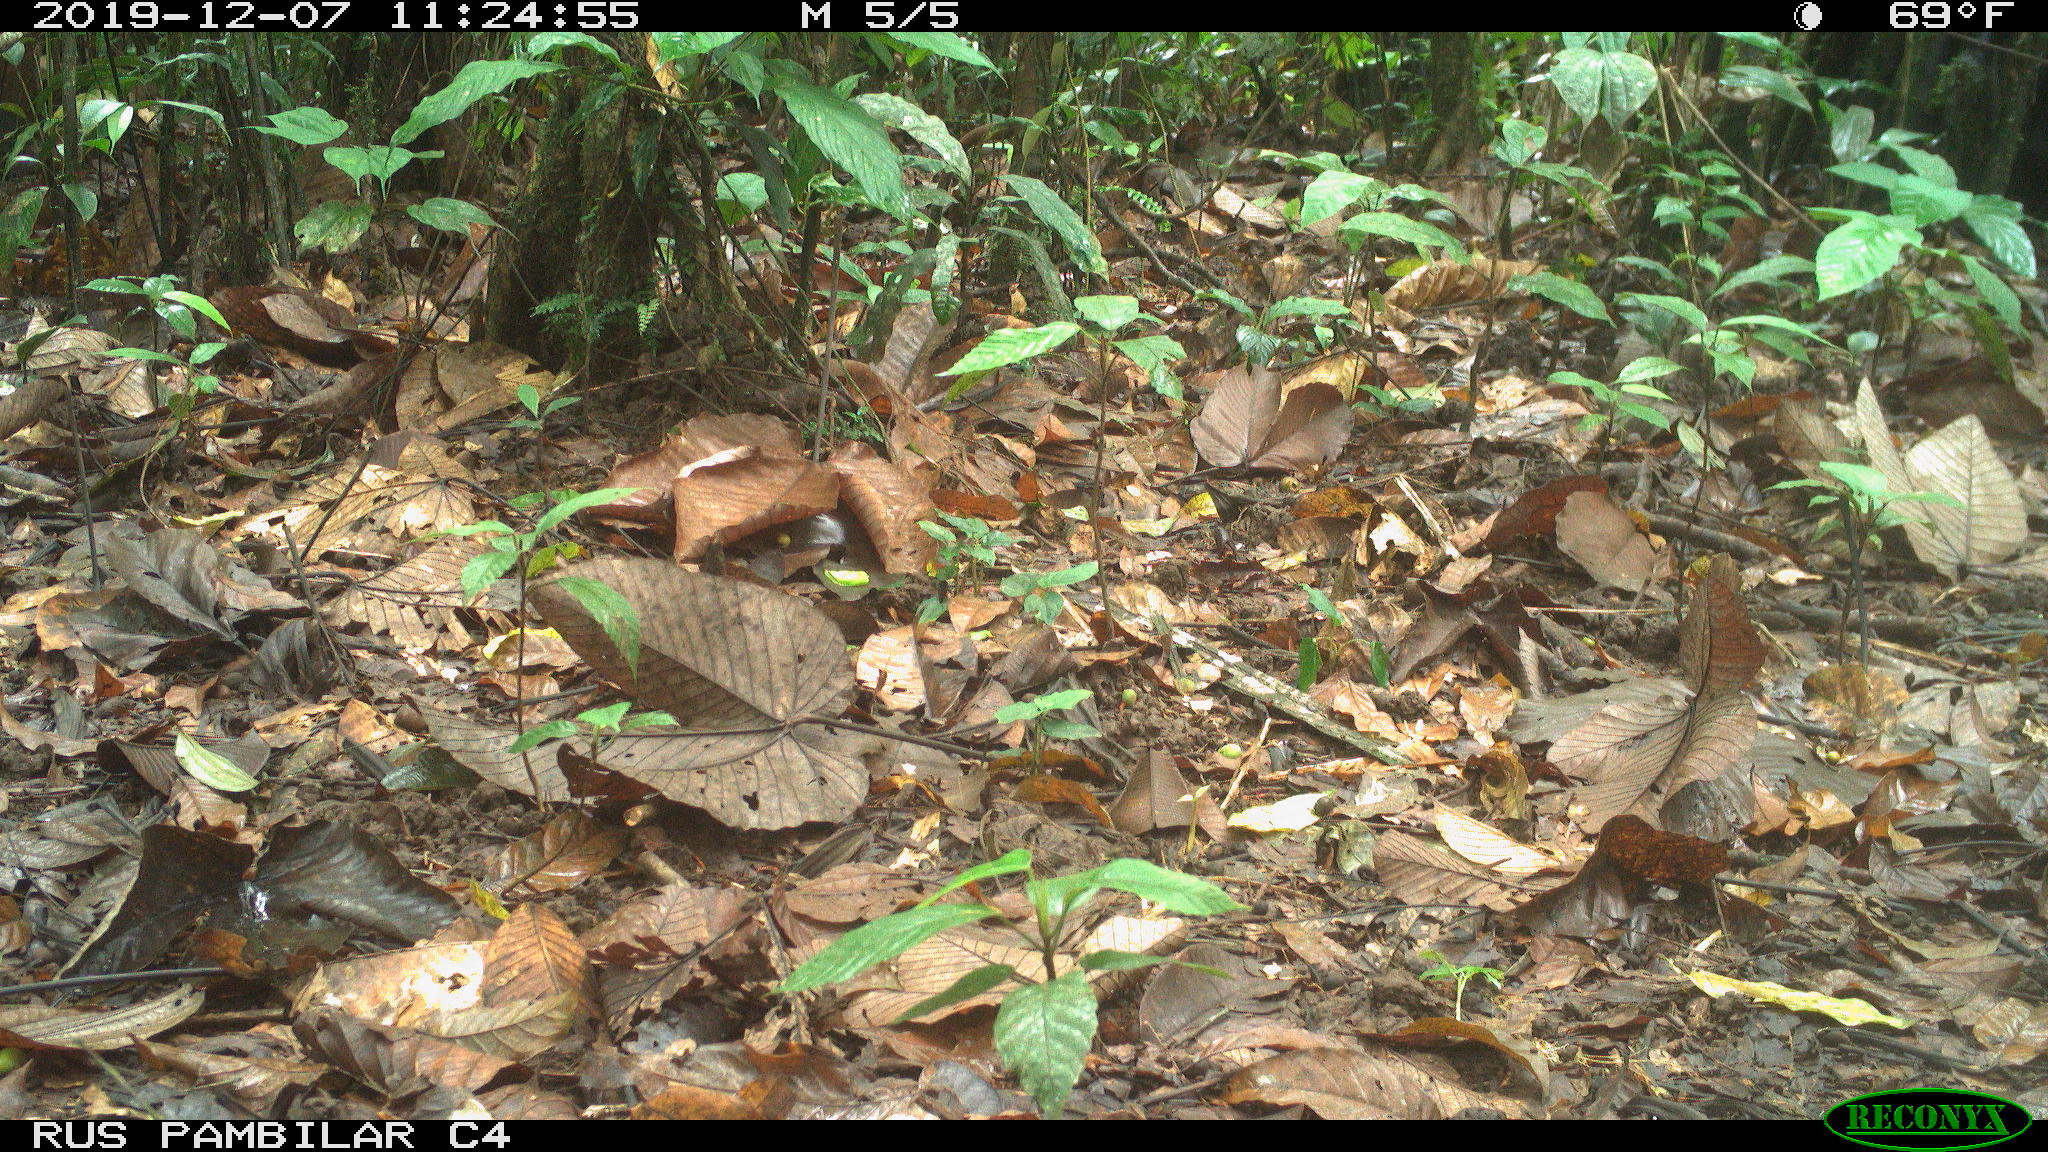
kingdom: Animalia
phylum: Chordata
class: Mammalia
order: Rodentia
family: Dasyproctidae
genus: Dasyprocta
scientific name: Dasyprocta punctata
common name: Central american agouti
